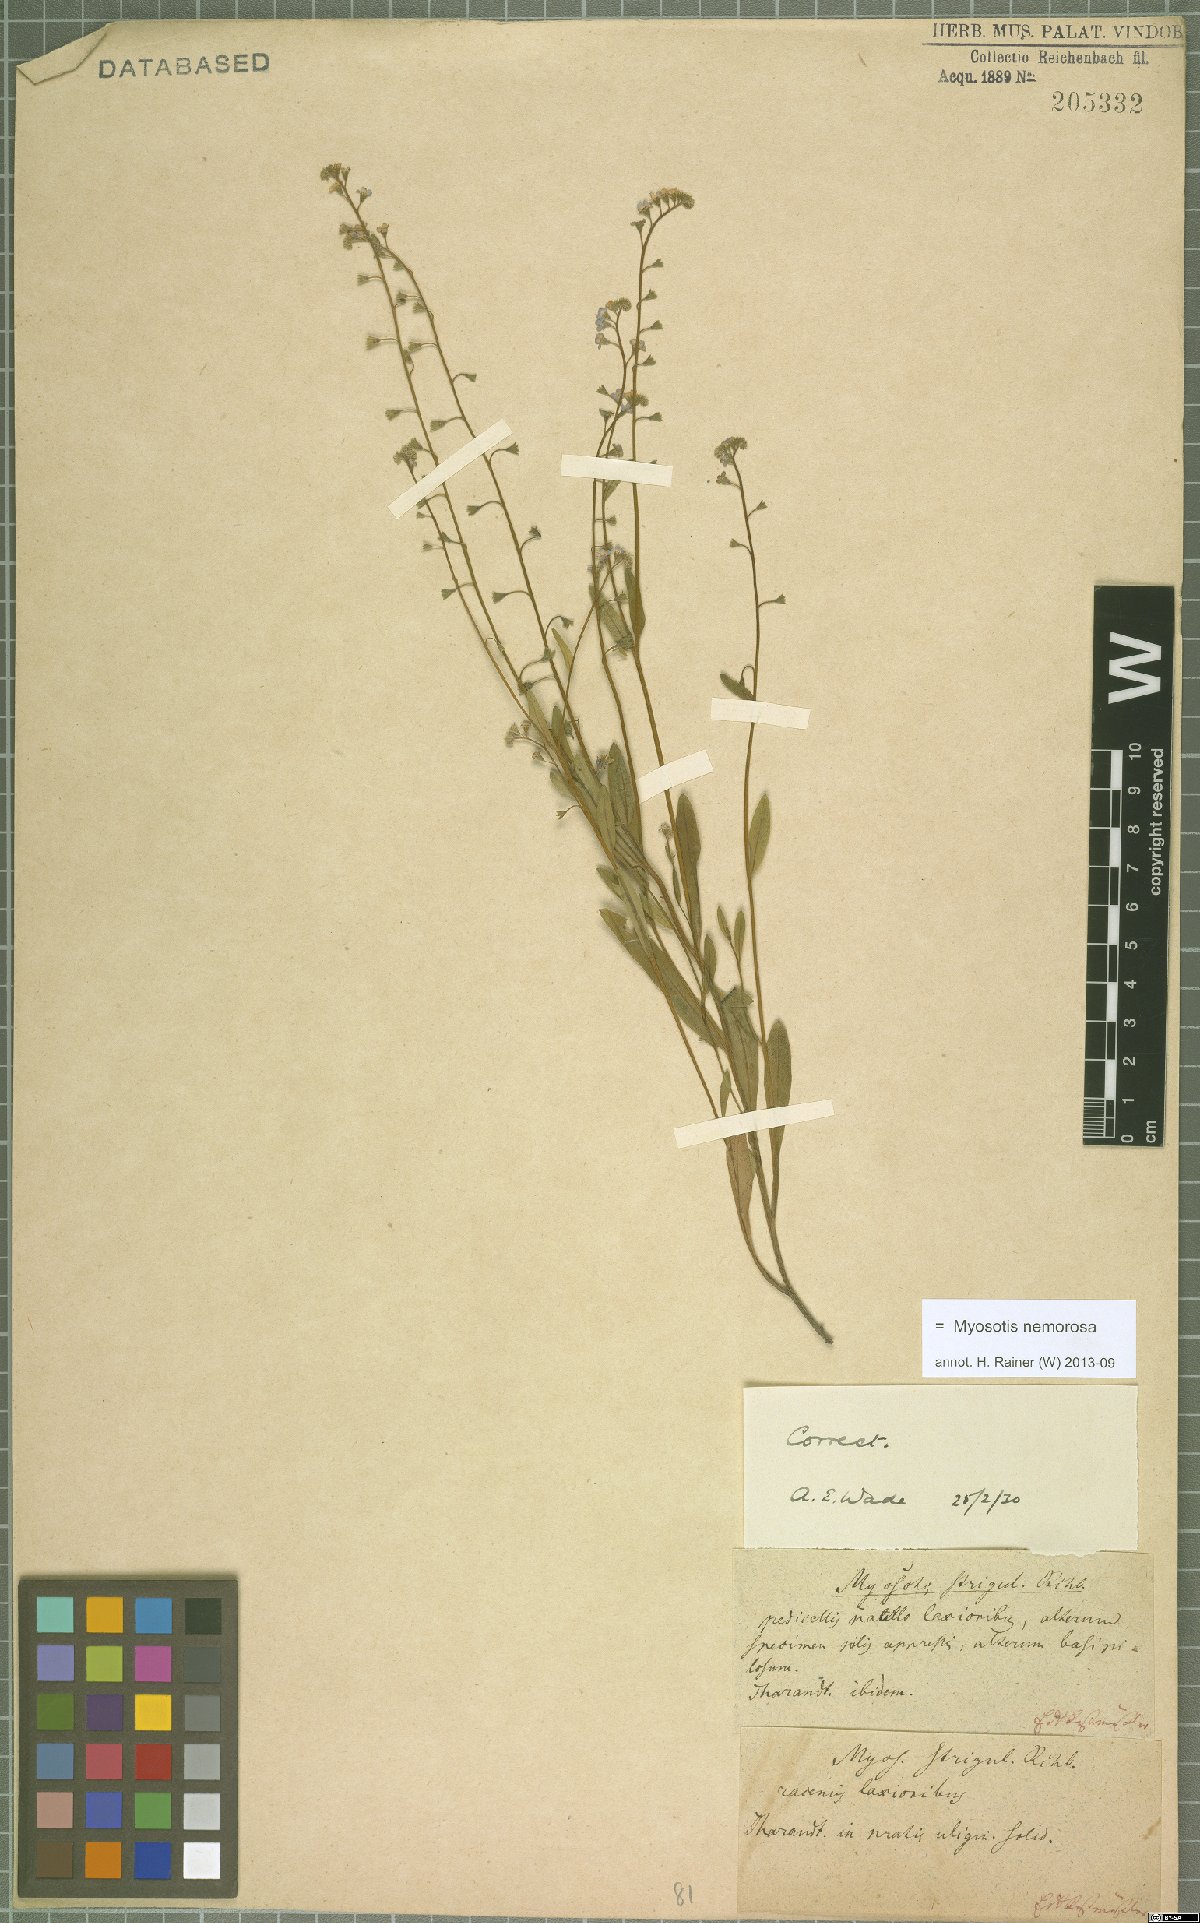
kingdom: Plantae
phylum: Tracheophyta
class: Magnoliopsida
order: Boraginales
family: Boraginaceae
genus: Myosotis
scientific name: Myosotis nemorosa
